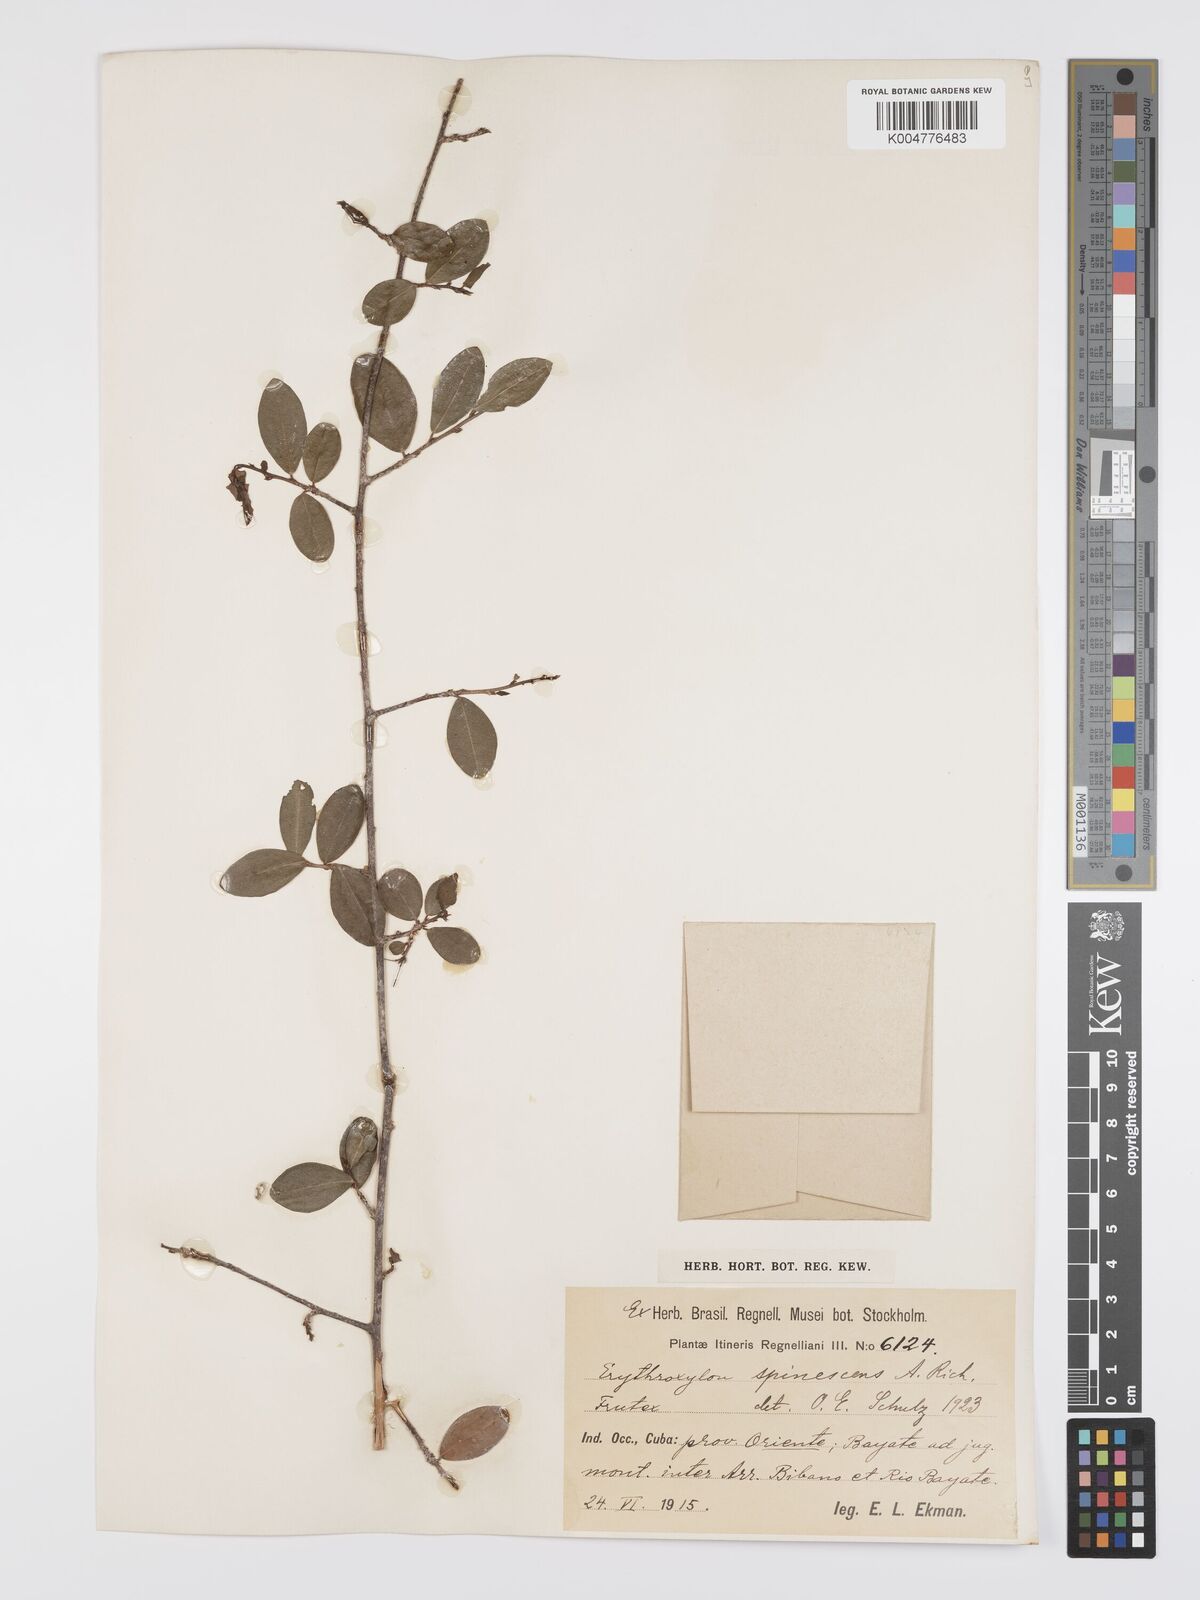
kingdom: Plantae
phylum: Tracheophyta
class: Magnoliopsida
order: Malpighiales
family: Erythroxylaceae
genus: Erythroxylum
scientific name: Erythroxylum rotundifolium
